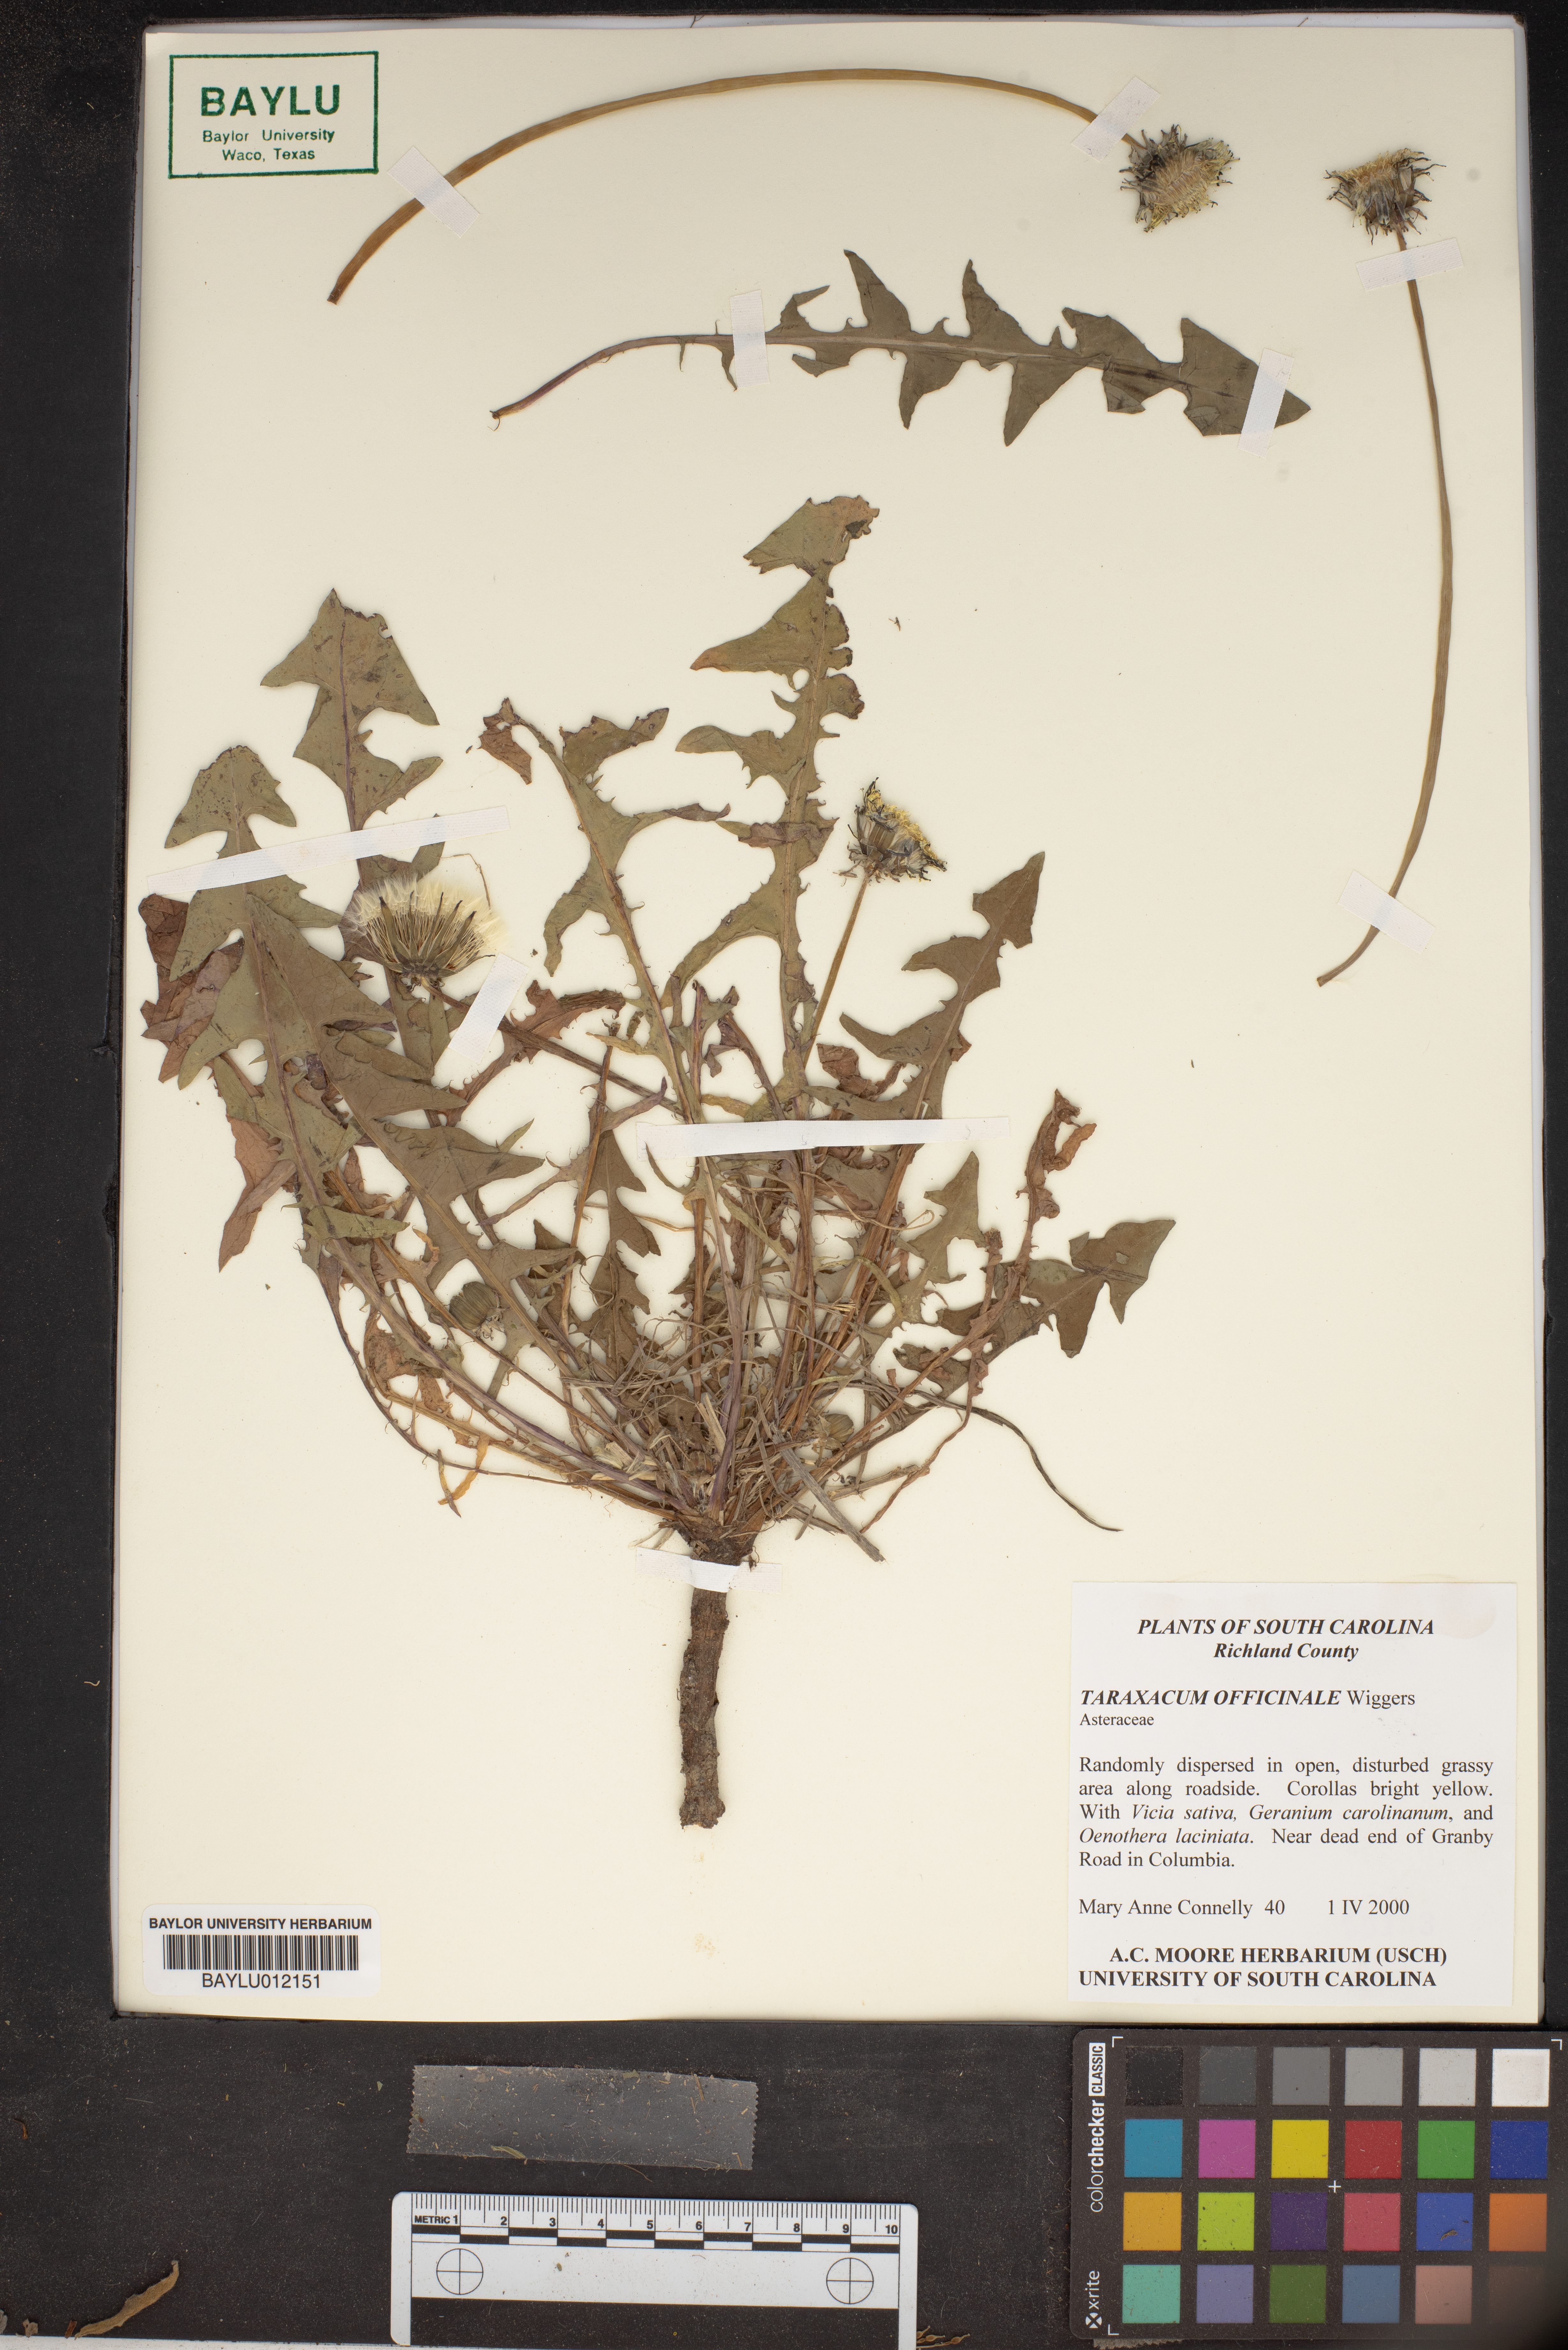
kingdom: Plantae
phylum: Tracheophyta
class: Magnoliopsida
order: Asterales
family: Asteraceae
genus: Taraxacum
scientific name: Taraxacum officinale
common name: Common dandelion
